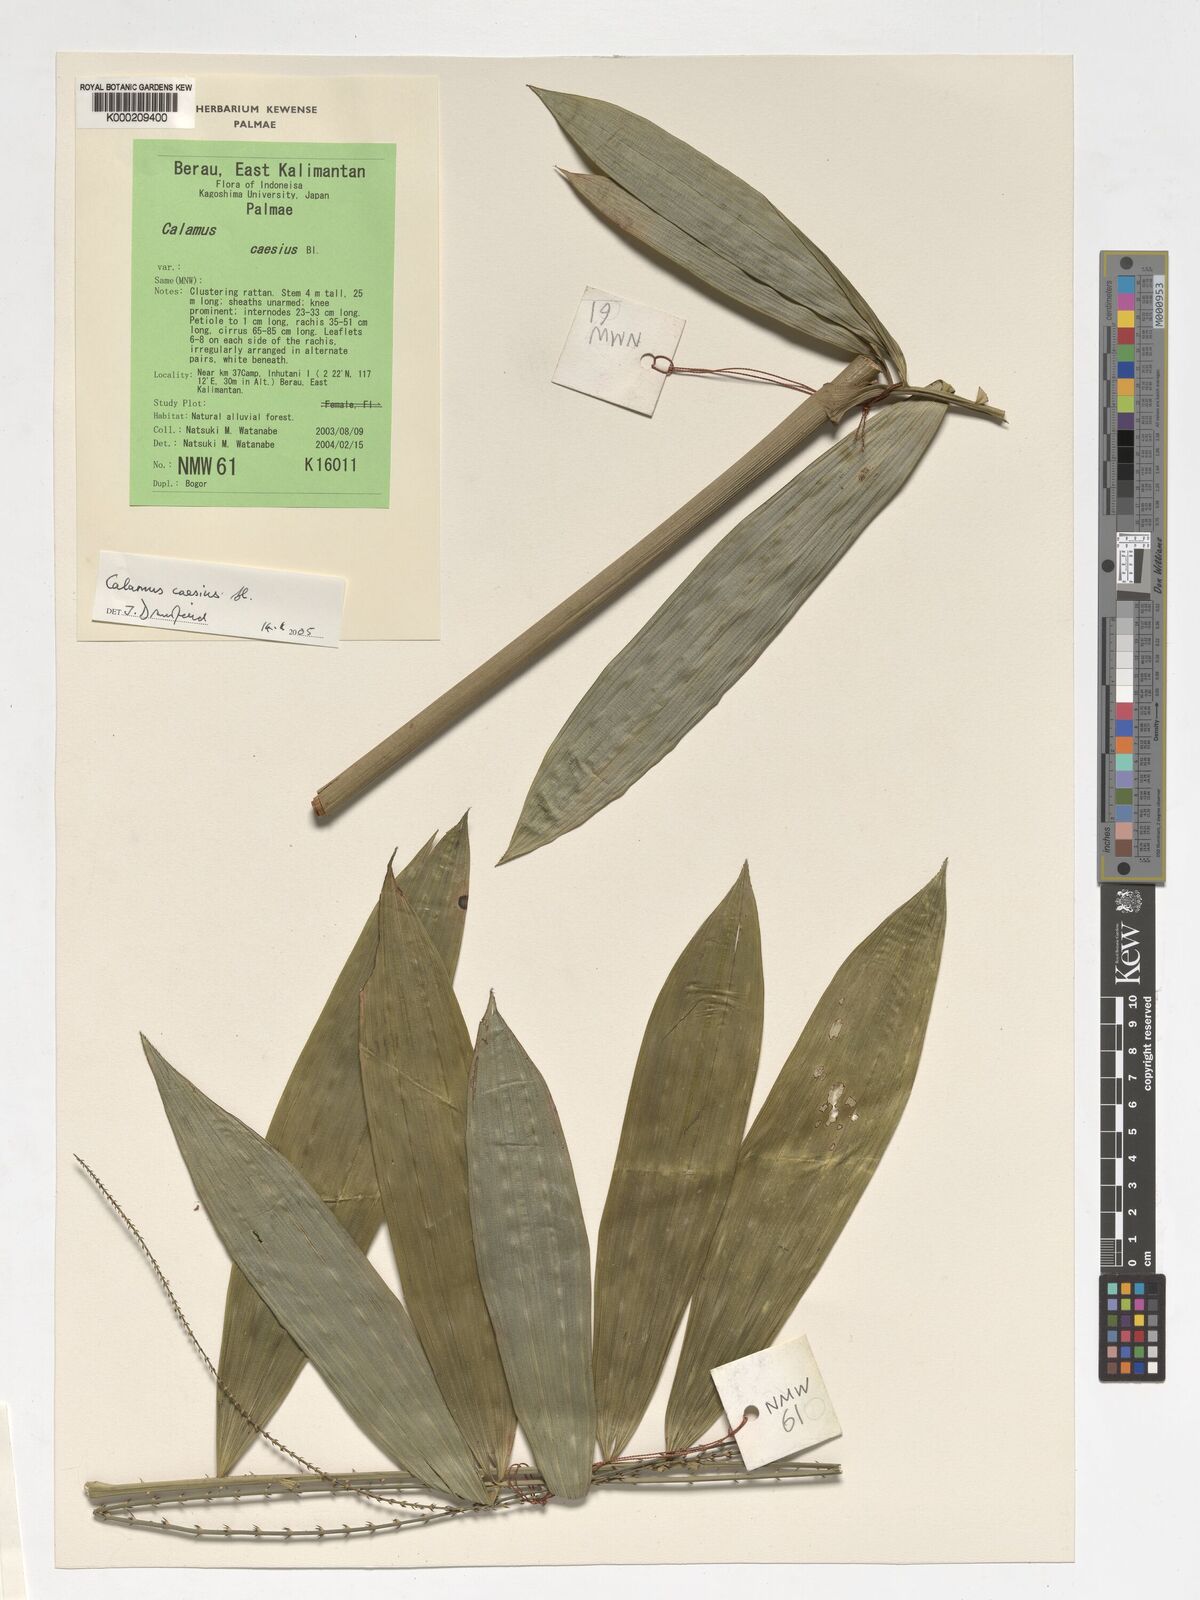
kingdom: Plantae
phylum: Tracheophyta
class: Liliopsida
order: Arecales
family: Arecaceae
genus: Calamus
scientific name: Calamus caesius
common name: Rattan palm
